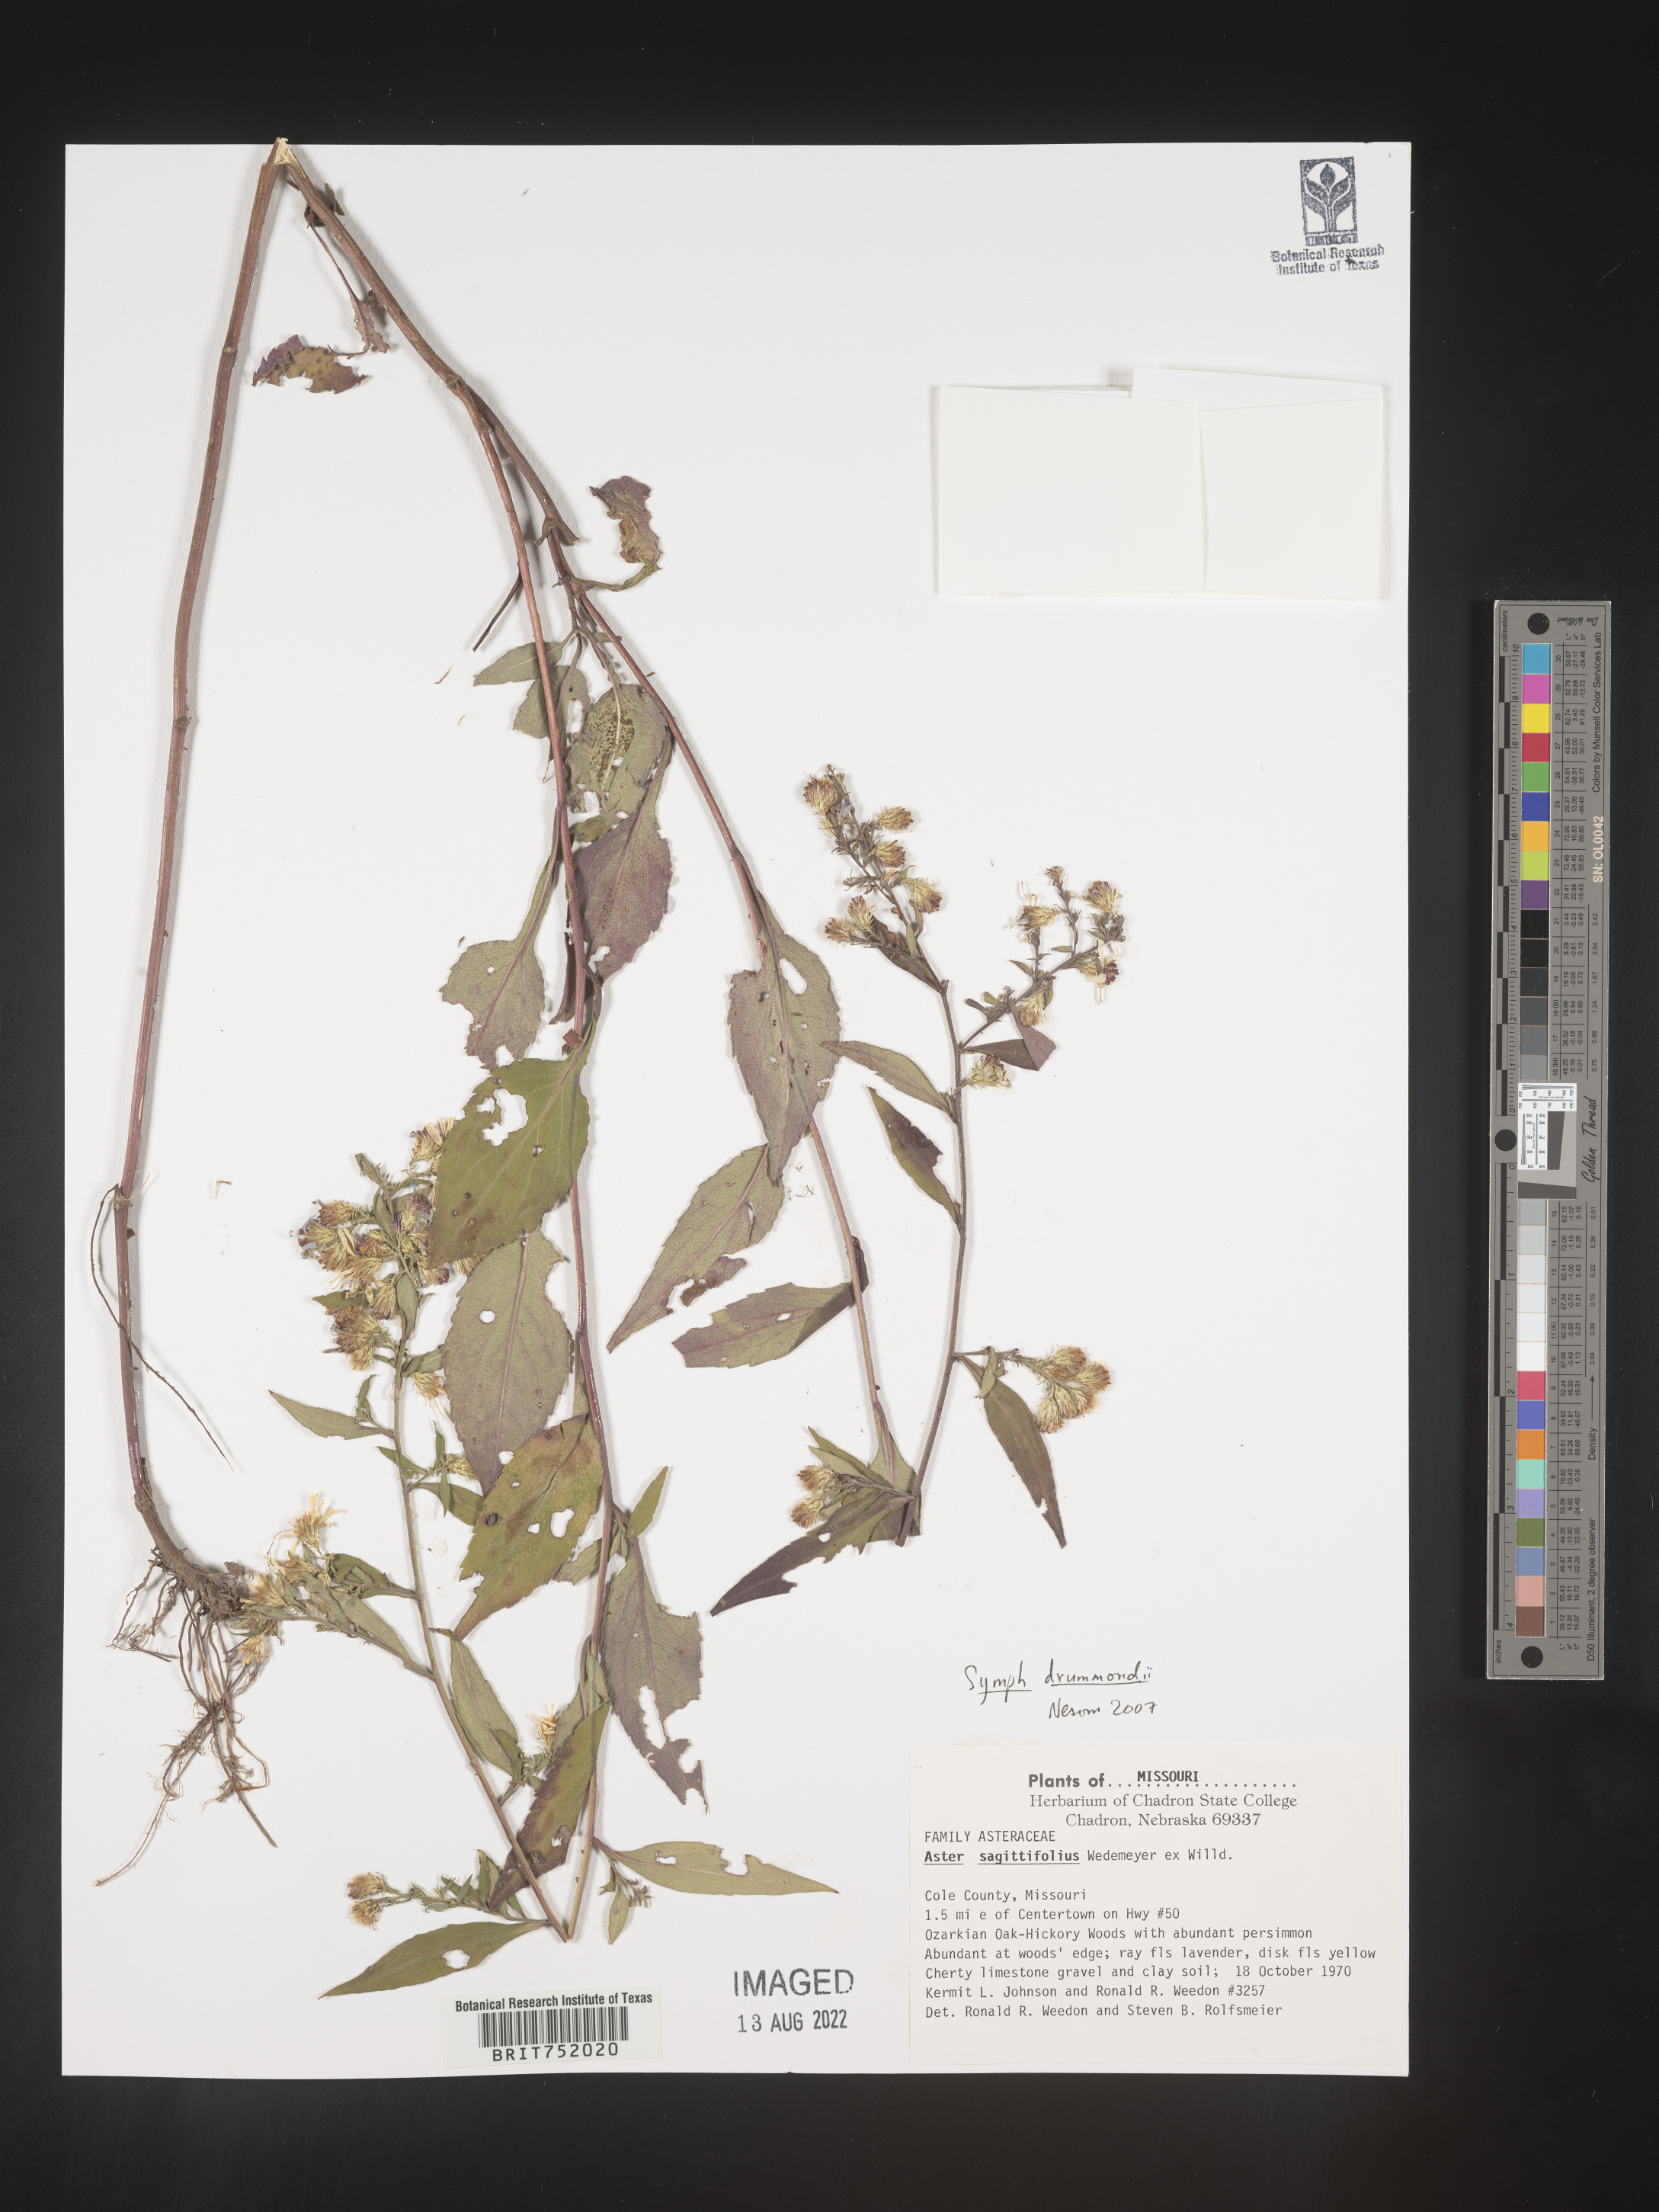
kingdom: Plantae
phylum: Tracheophyta
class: Magnoliopsida
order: Asterales
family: Asteraceae
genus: Symphyotrichum
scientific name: Symphyotrichum drummondii
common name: Drummond's aster
